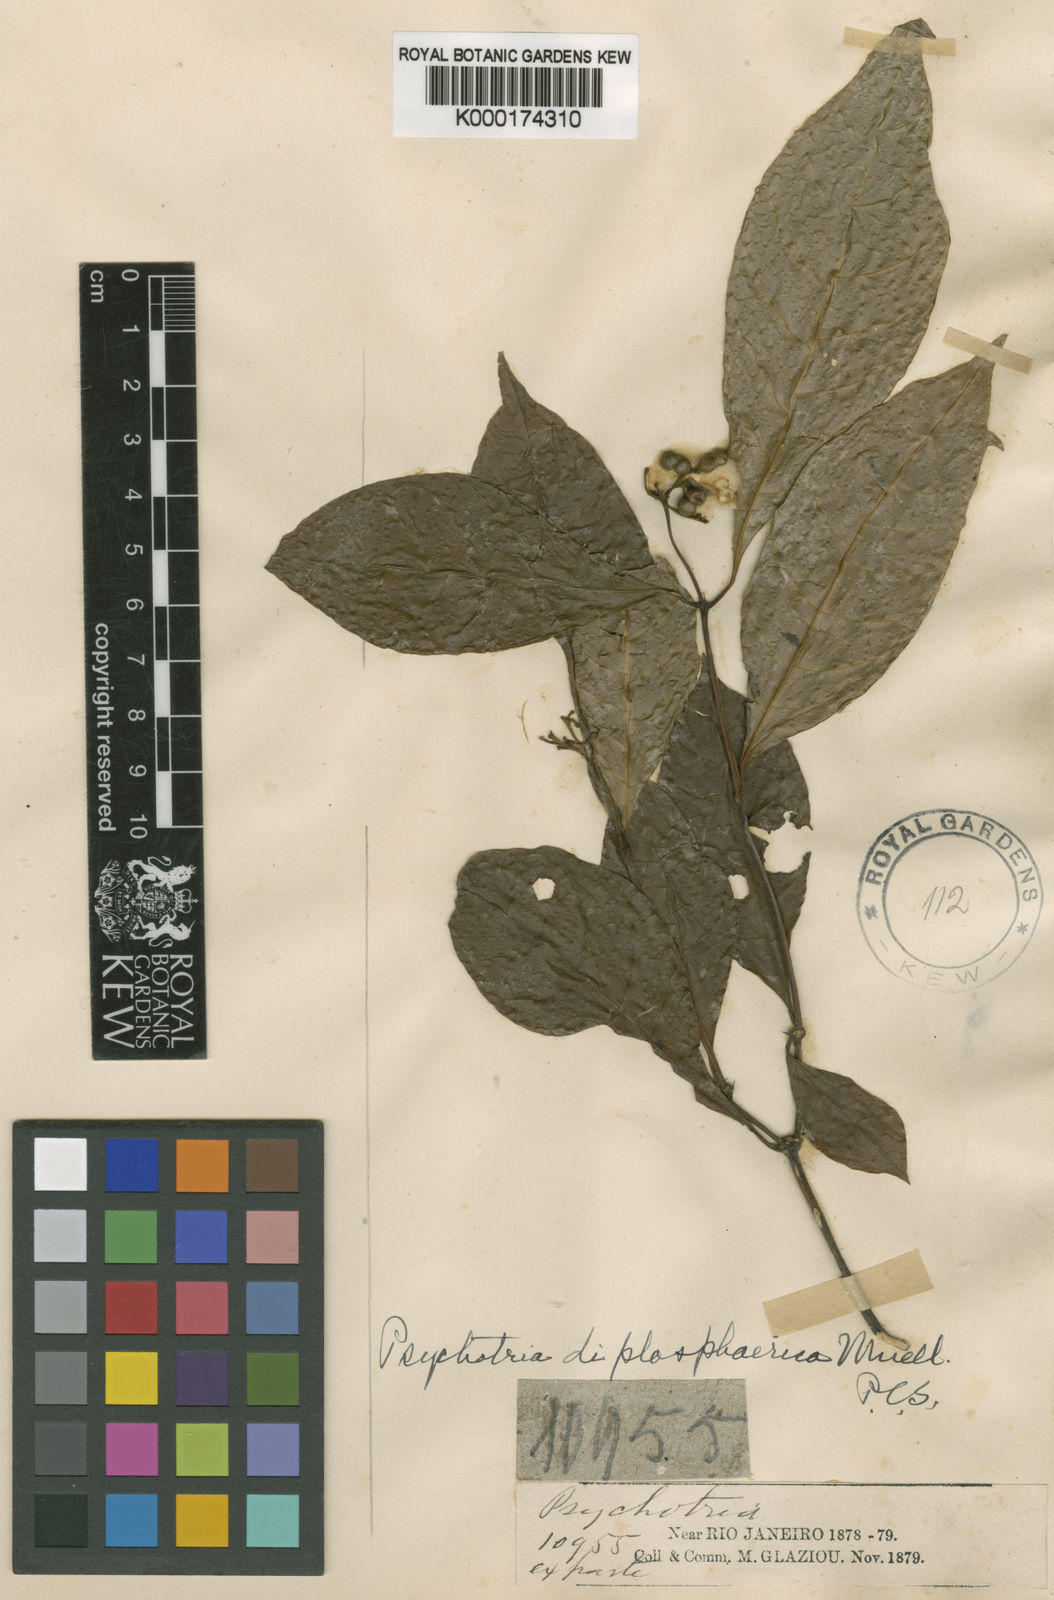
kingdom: Plantae
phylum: Tracheophyta
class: Magnoliopsida
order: Gentianales
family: Rubiaceae
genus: Psychotria
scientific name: Psychotria
